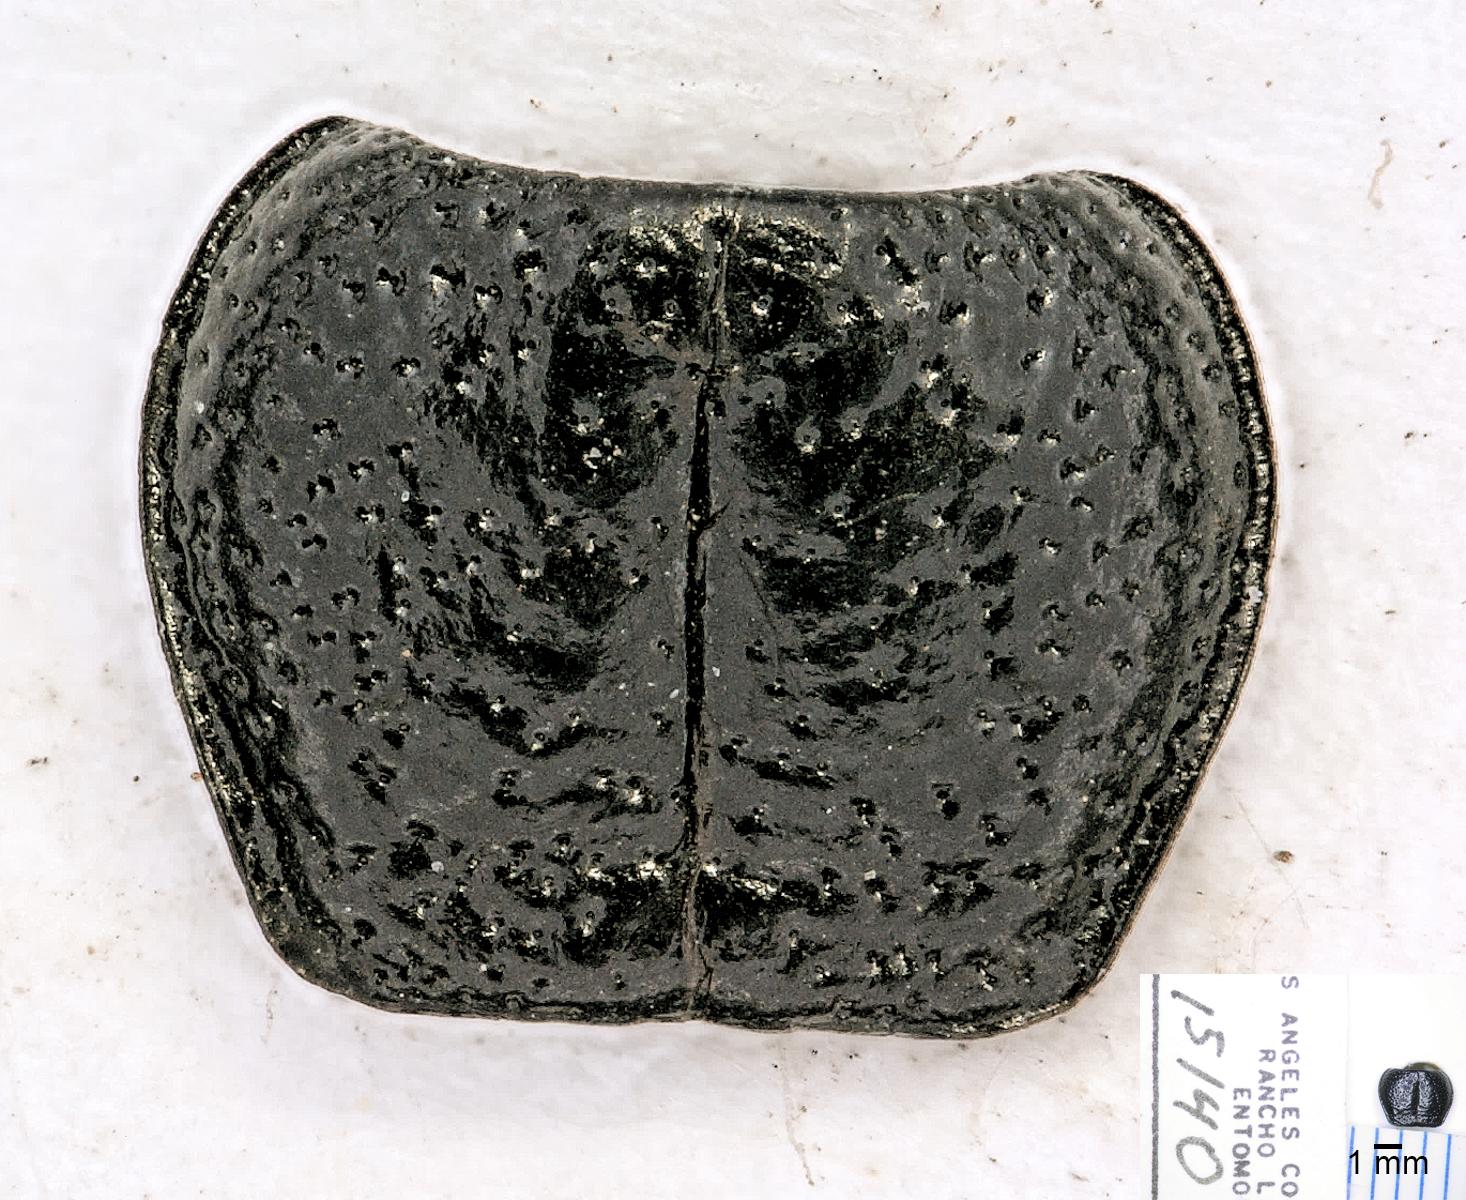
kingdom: Animalia
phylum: Arthropoda
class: Insecta
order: Coleoptera
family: Carabidae
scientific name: Carabidae
